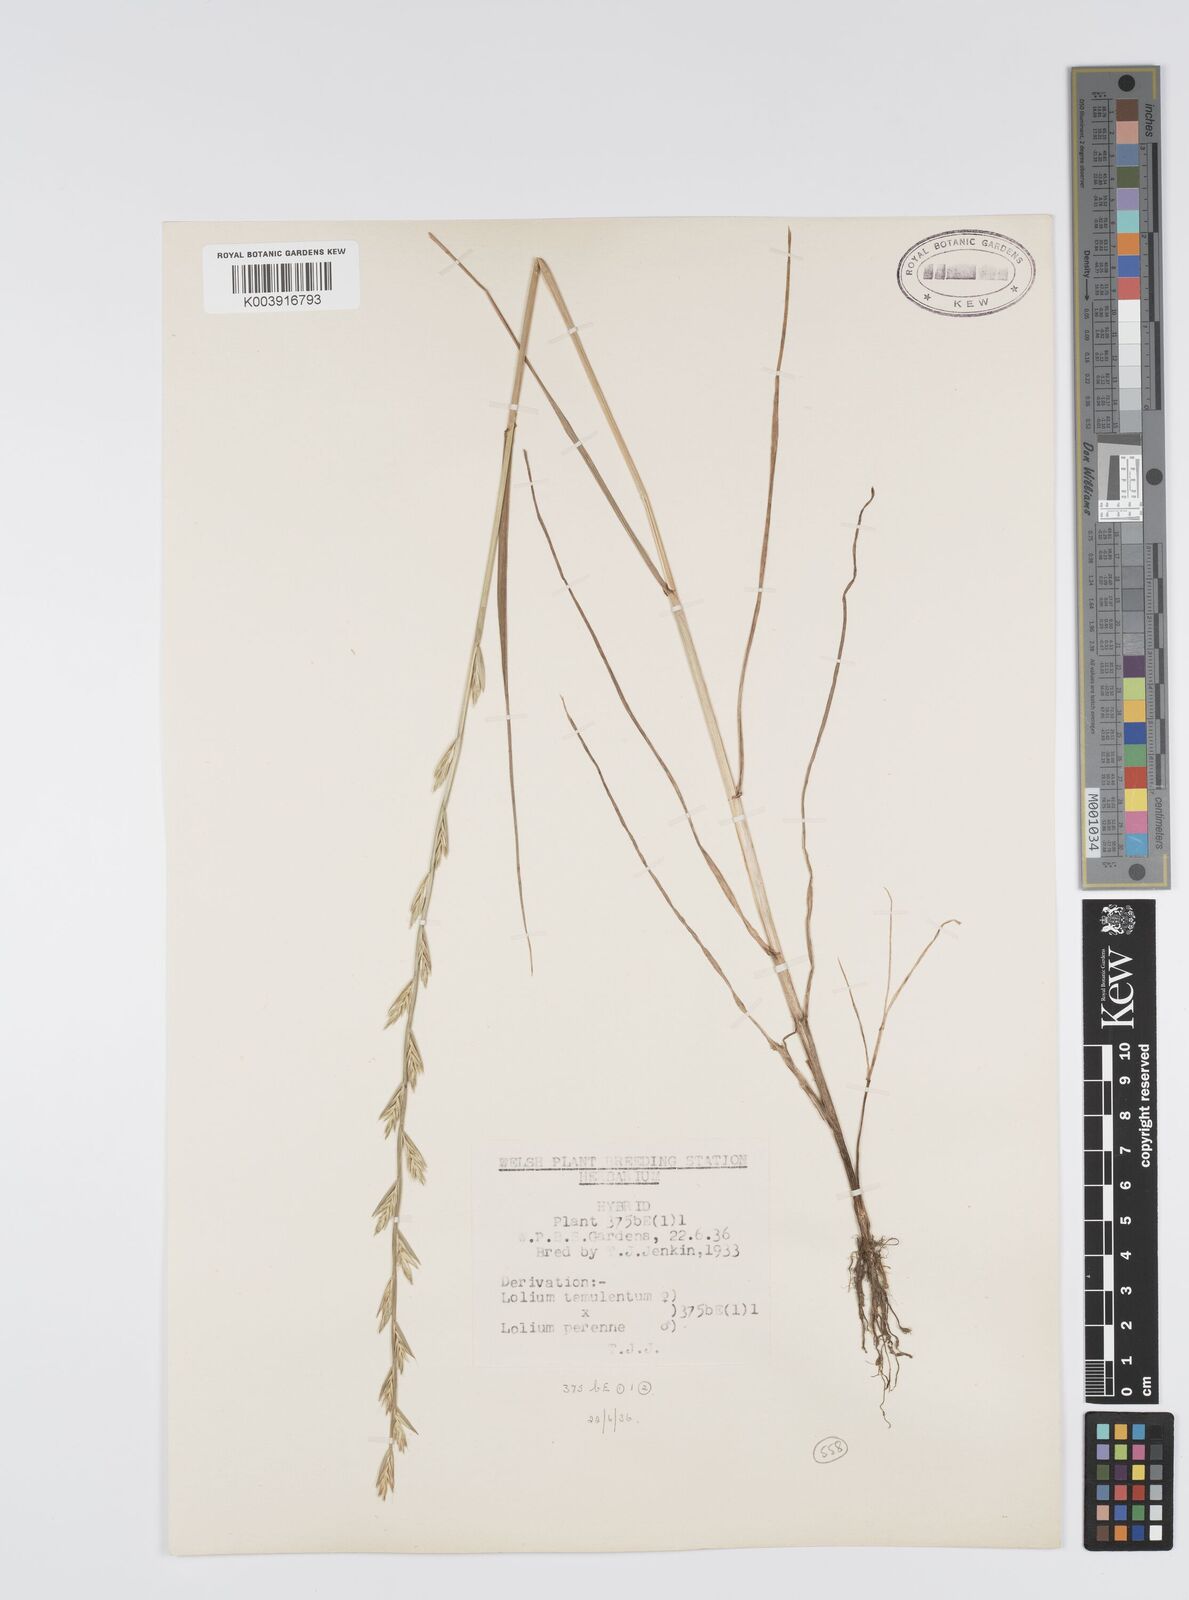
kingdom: Plantae
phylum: Tracheophyta
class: Liliopsida
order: Poales
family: Poaceae
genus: Lolium
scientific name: Lolium perenne
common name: Perennial ryegrass
